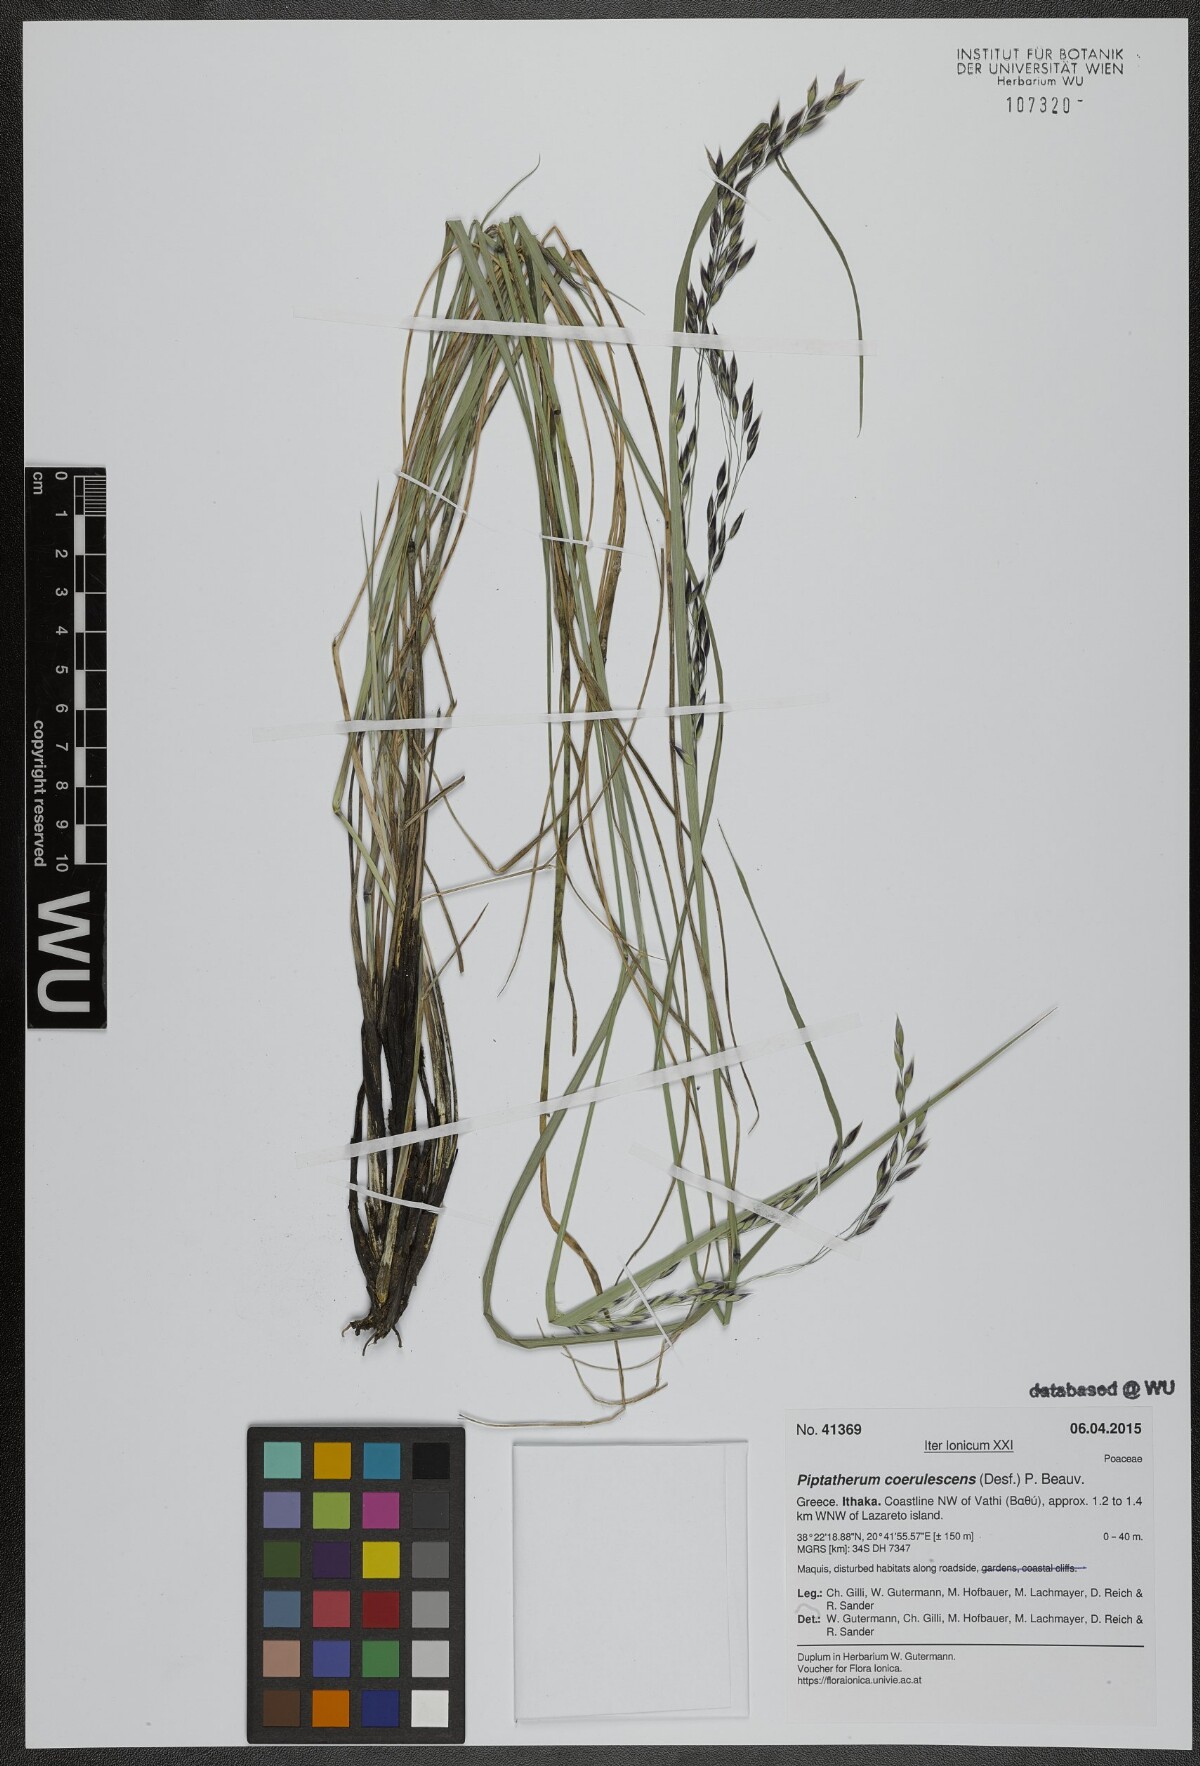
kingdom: Plantae
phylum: Tracheophyta
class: Liliopsida
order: Poales
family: Poaceae
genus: Piptatherum
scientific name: Piptatherum coerulescens
